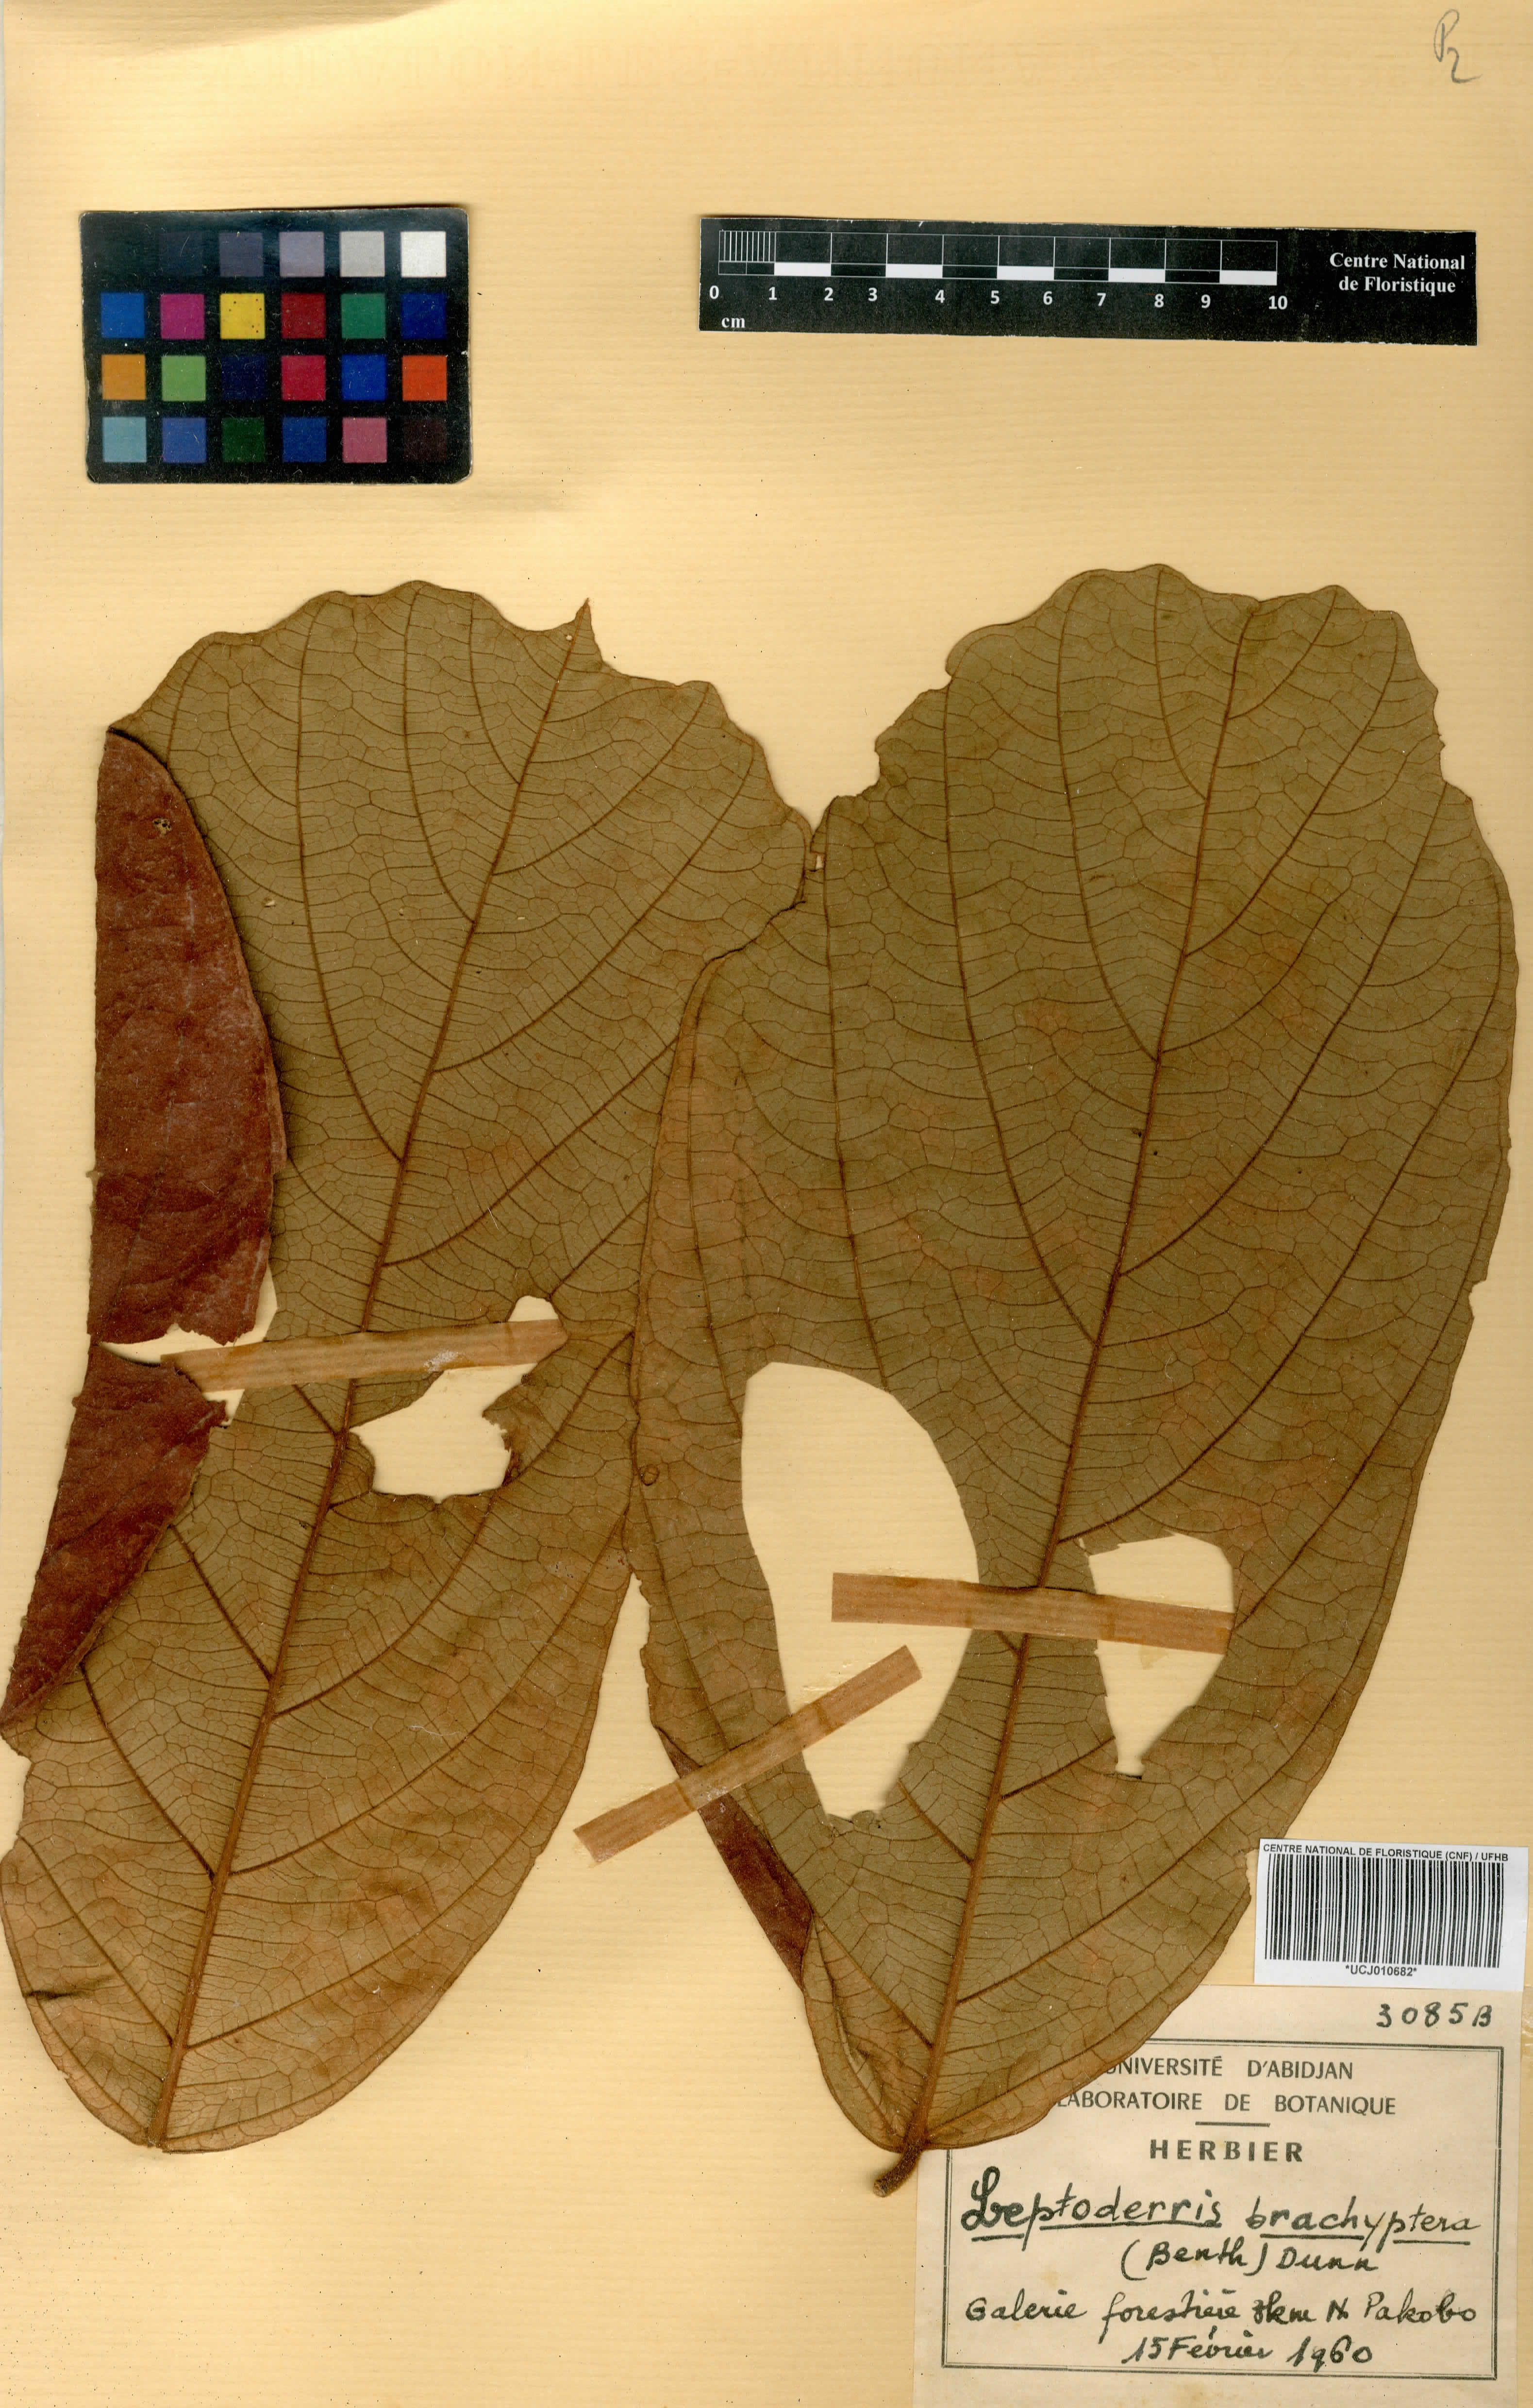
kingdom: Plantae
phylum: Tracheophyta
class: Magnoliopsida
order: Fabales
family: Fabaceae
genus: Leptoderris
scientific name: Leptoderris brachyptera
